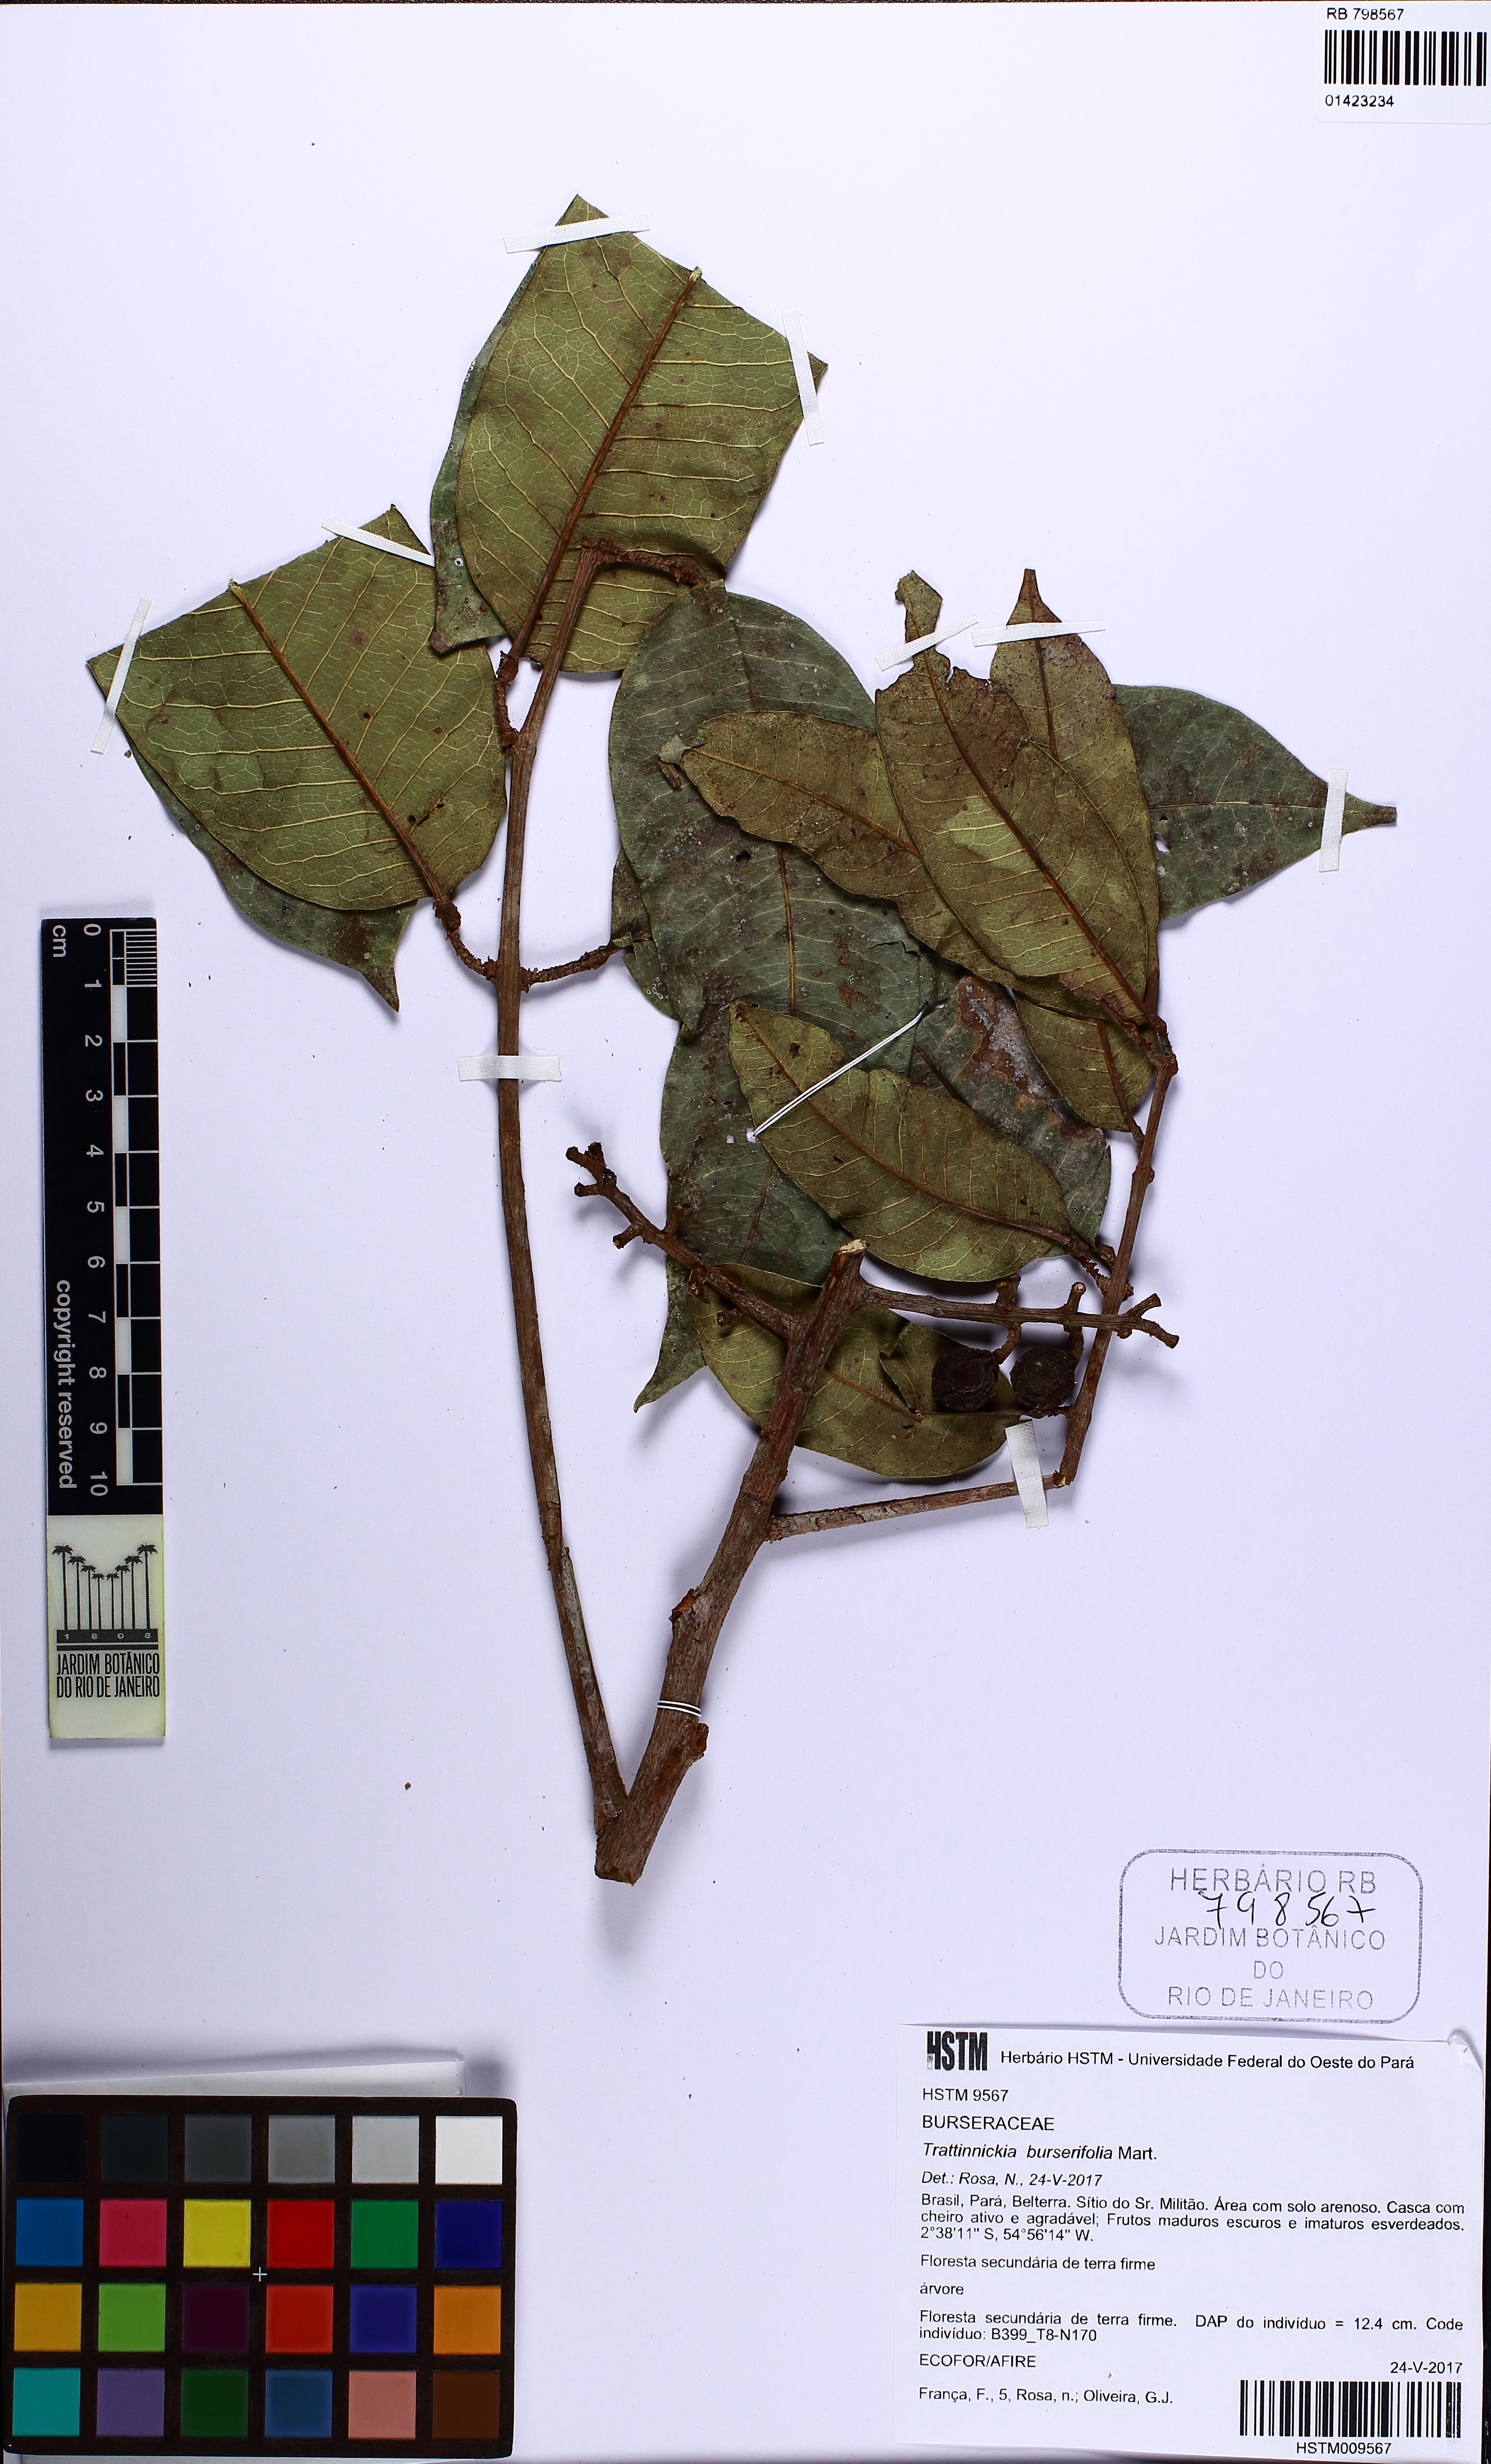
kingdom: Plantae
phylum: Tracheophyta
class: Magnoliopsida
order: Sapindales
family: Burseraceae
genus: Trattinnickia
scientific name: Trattinnickia burserifolia
